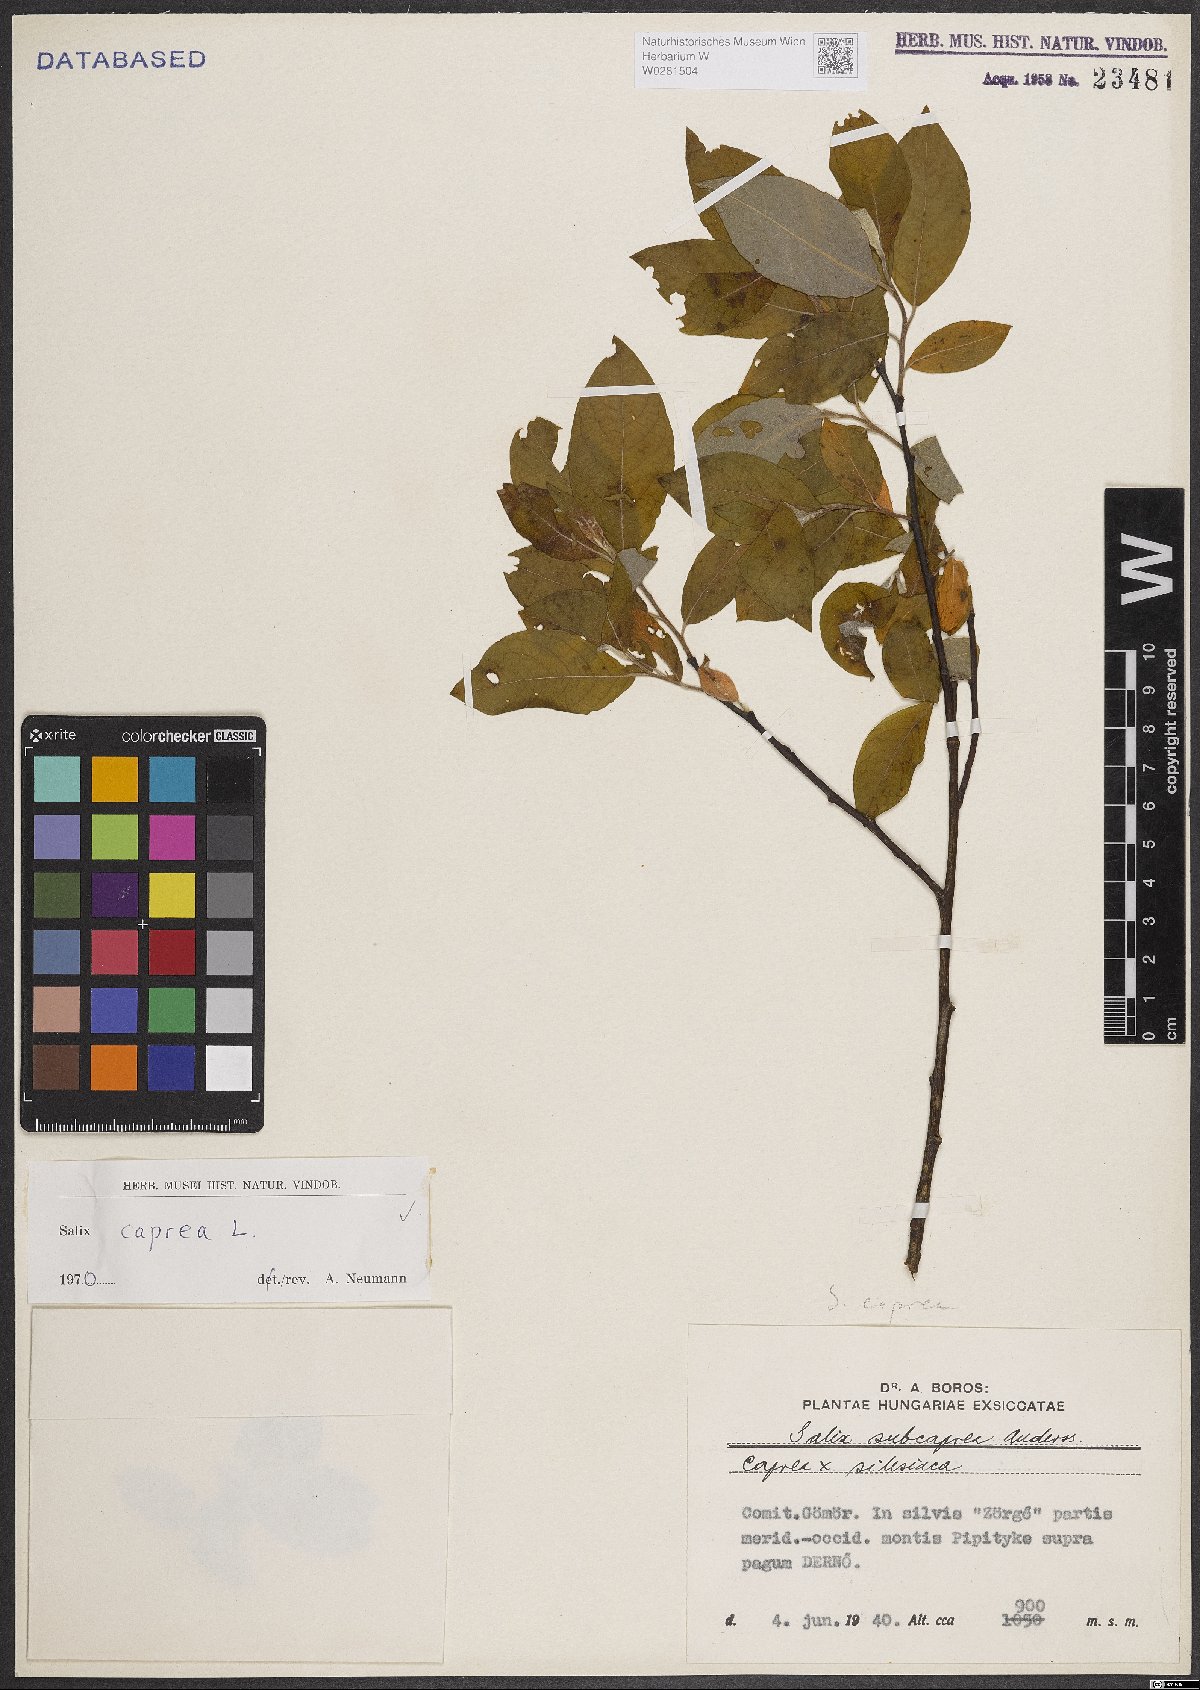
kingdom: Plantae
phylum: Tracheophyta
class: Magnoliopsida
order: Malpighiales
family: Salicaceae
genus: Salix
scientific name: Salix caprea
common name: Goat willow
